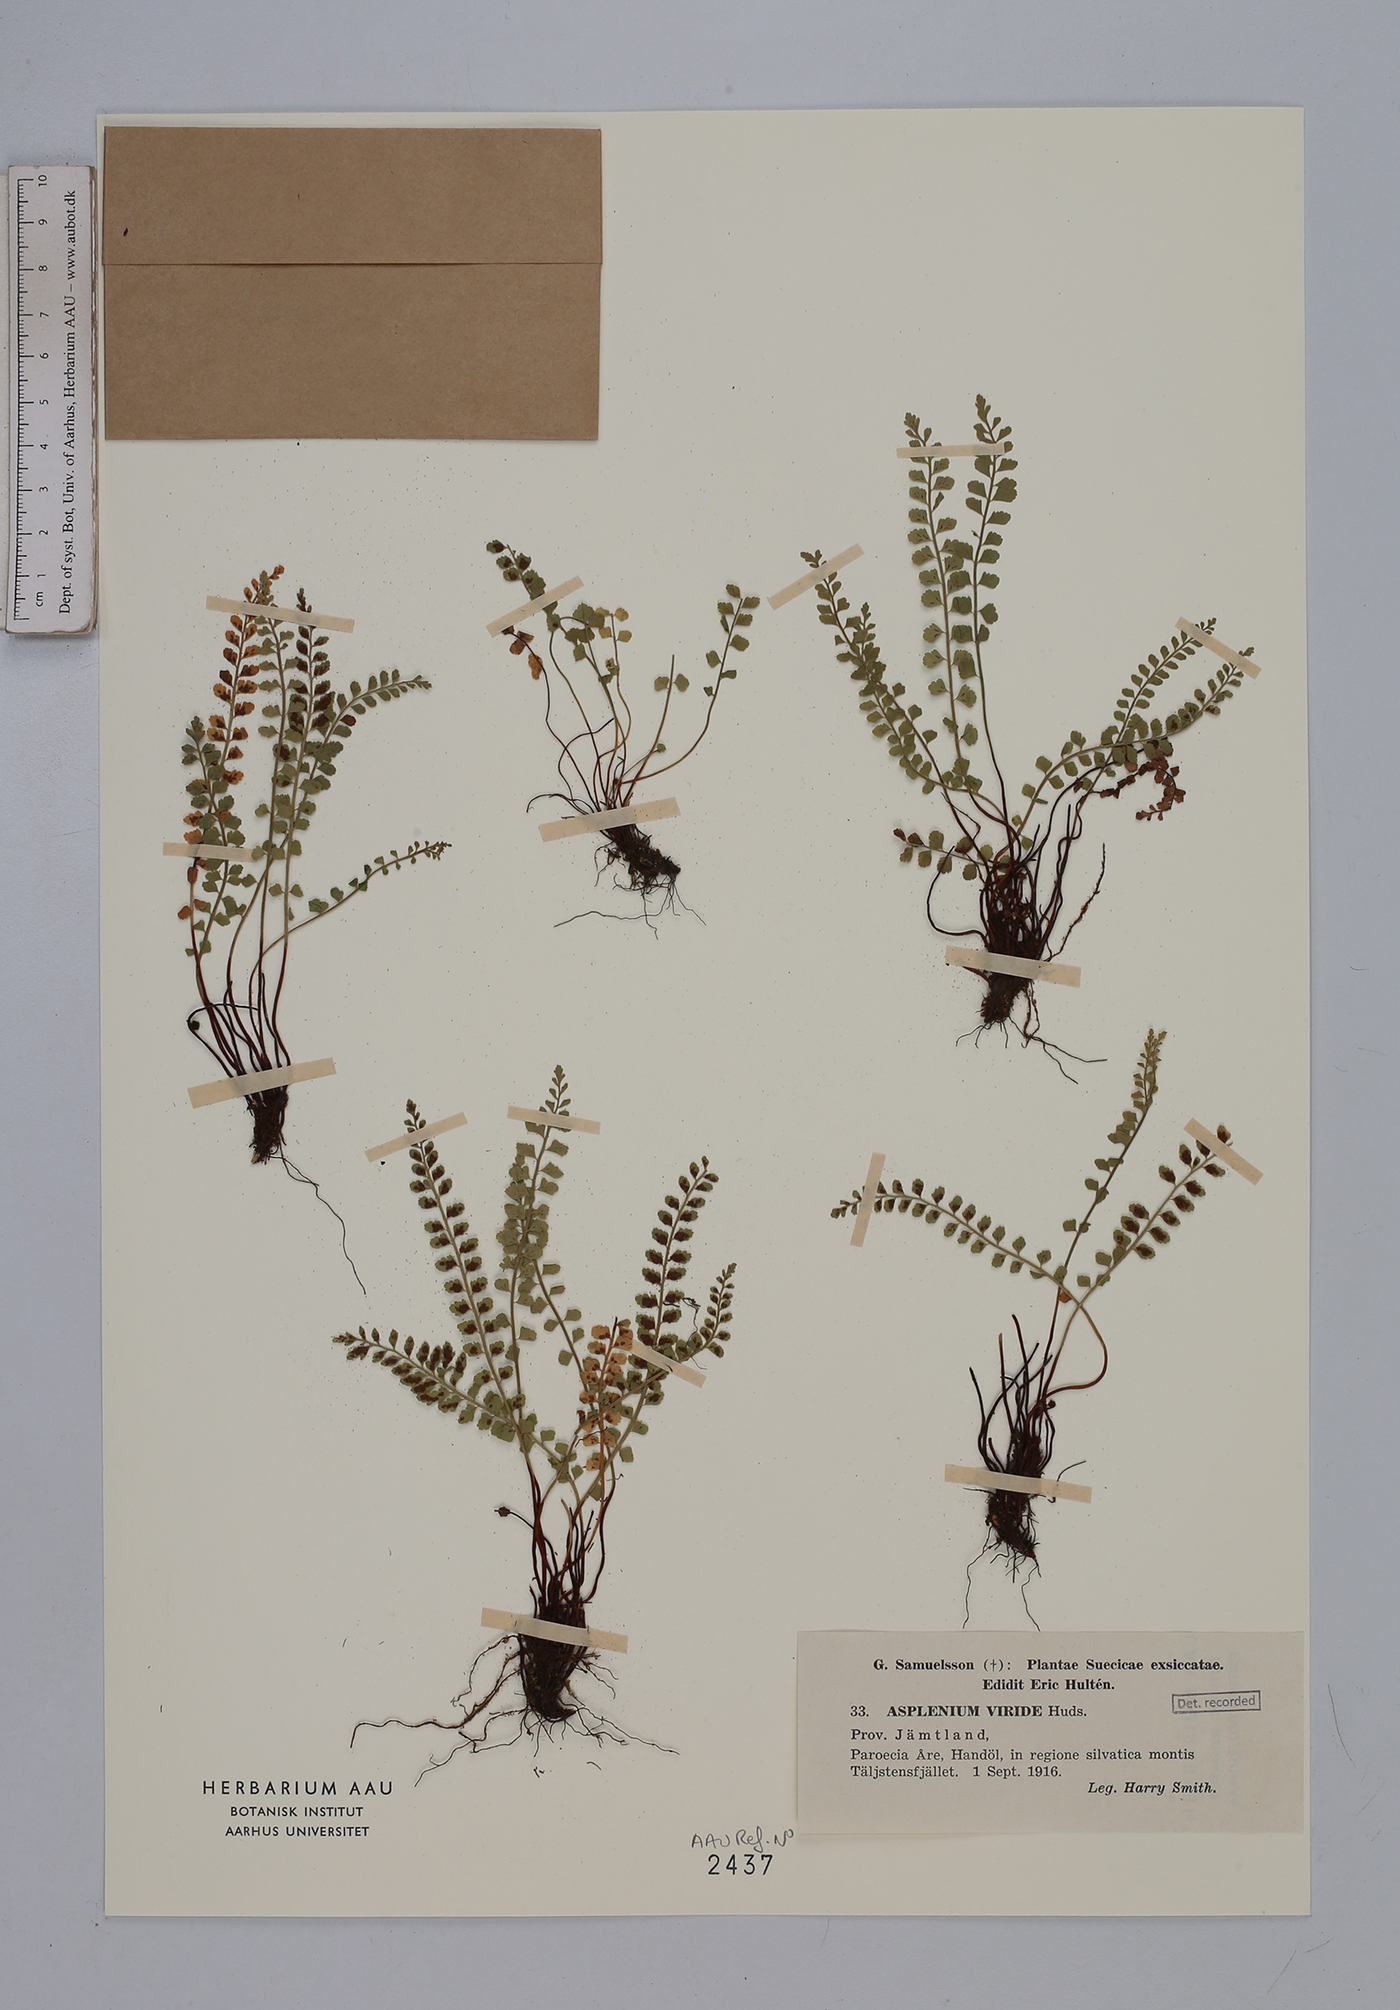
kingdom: Plantae
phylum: Tracheophyta
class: Polypodiopsida
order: Polypodiales
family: Aspleniaceae
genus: Asplenium
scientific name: Asplenium viride
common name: Green spleenwort
